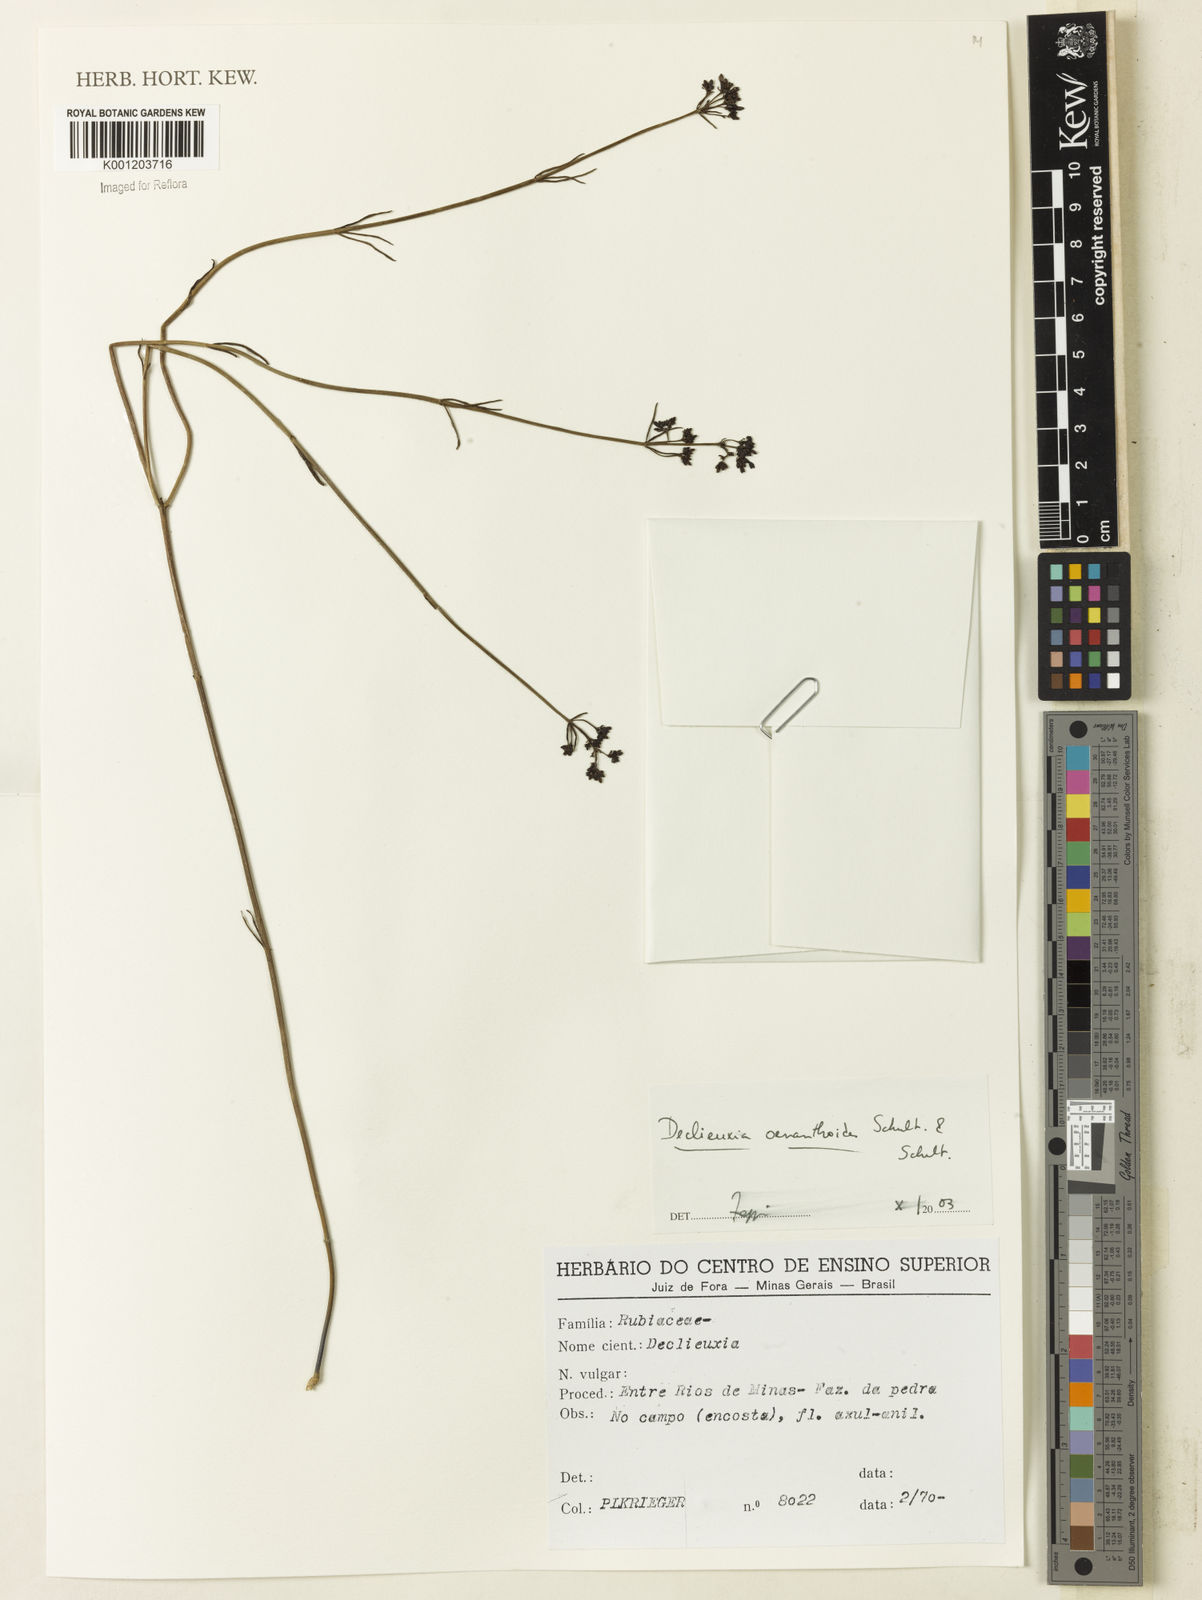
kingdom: Plantae
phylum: Tracheophyta
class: Magnoliopsida
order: Gentianales
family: Rubiaceae
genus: Declieuxia
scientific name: Declieuxia
